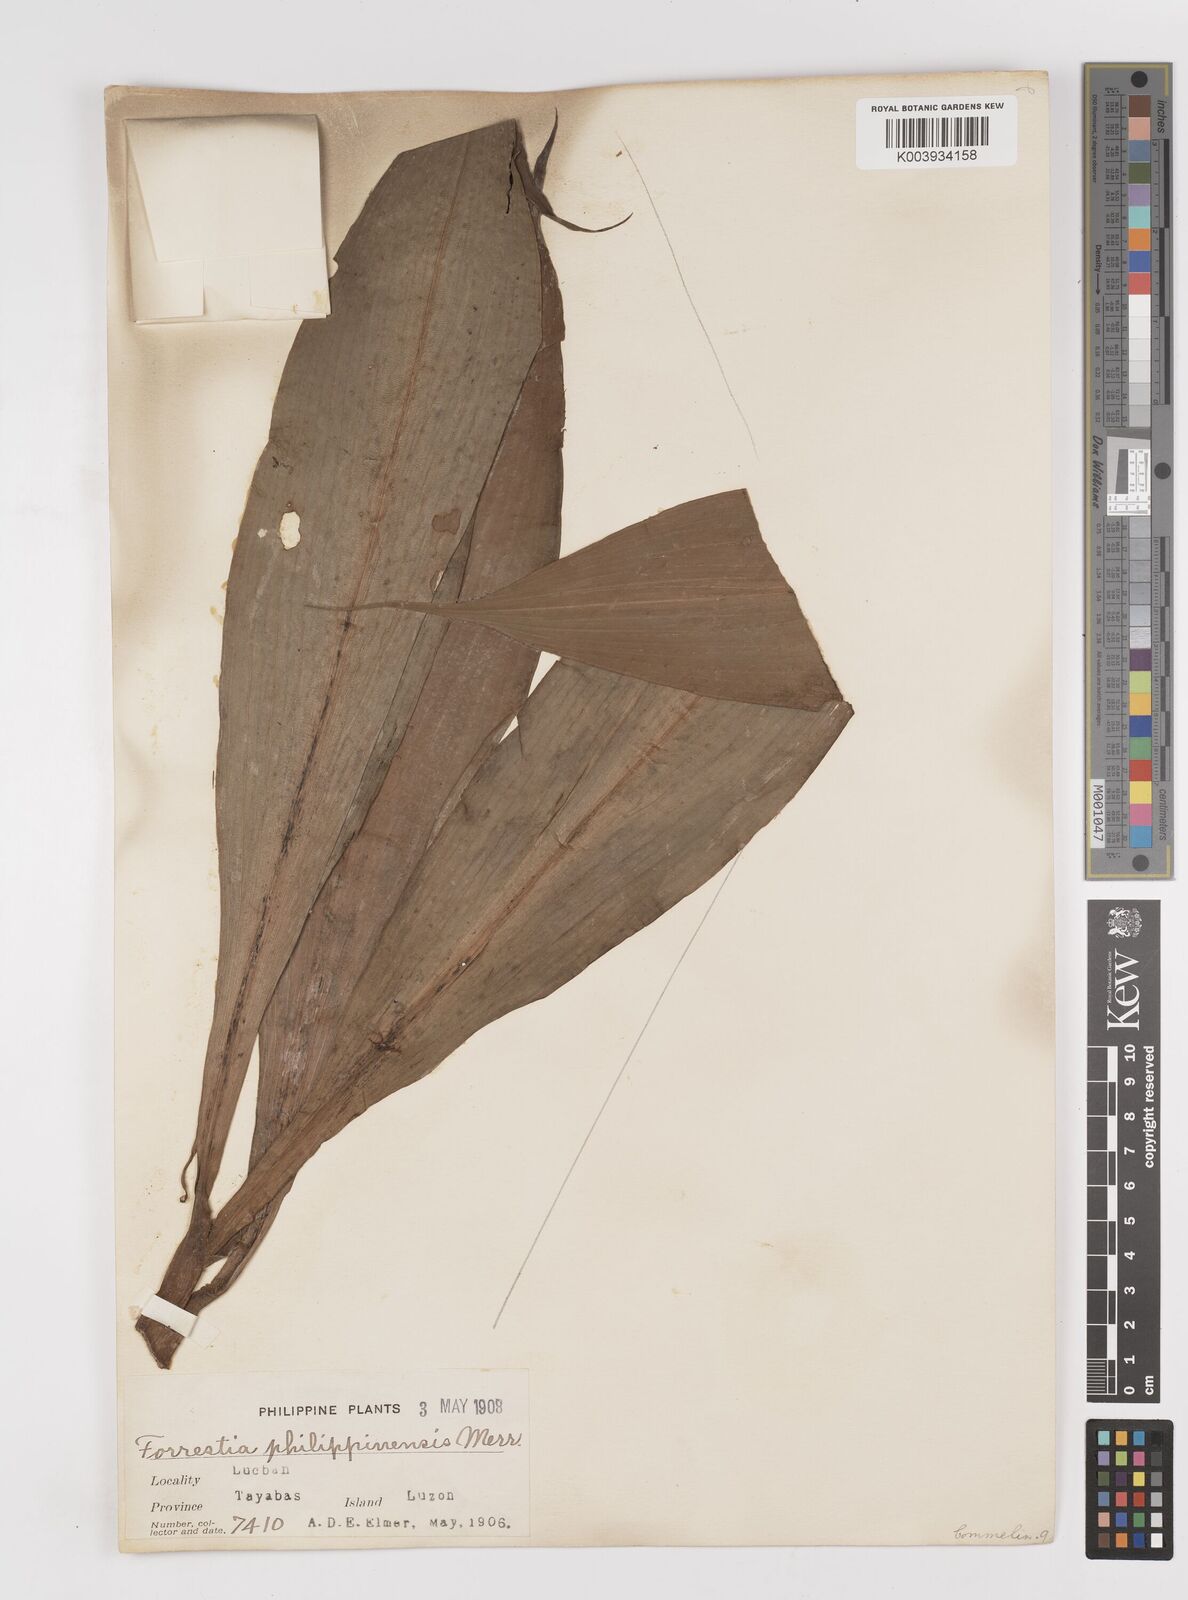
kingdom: Plantae
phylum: Tracheophyta
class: Liliopsida
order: Commelinales
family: Commelinaceae
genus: Amischotolype
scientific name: Amischotolype
